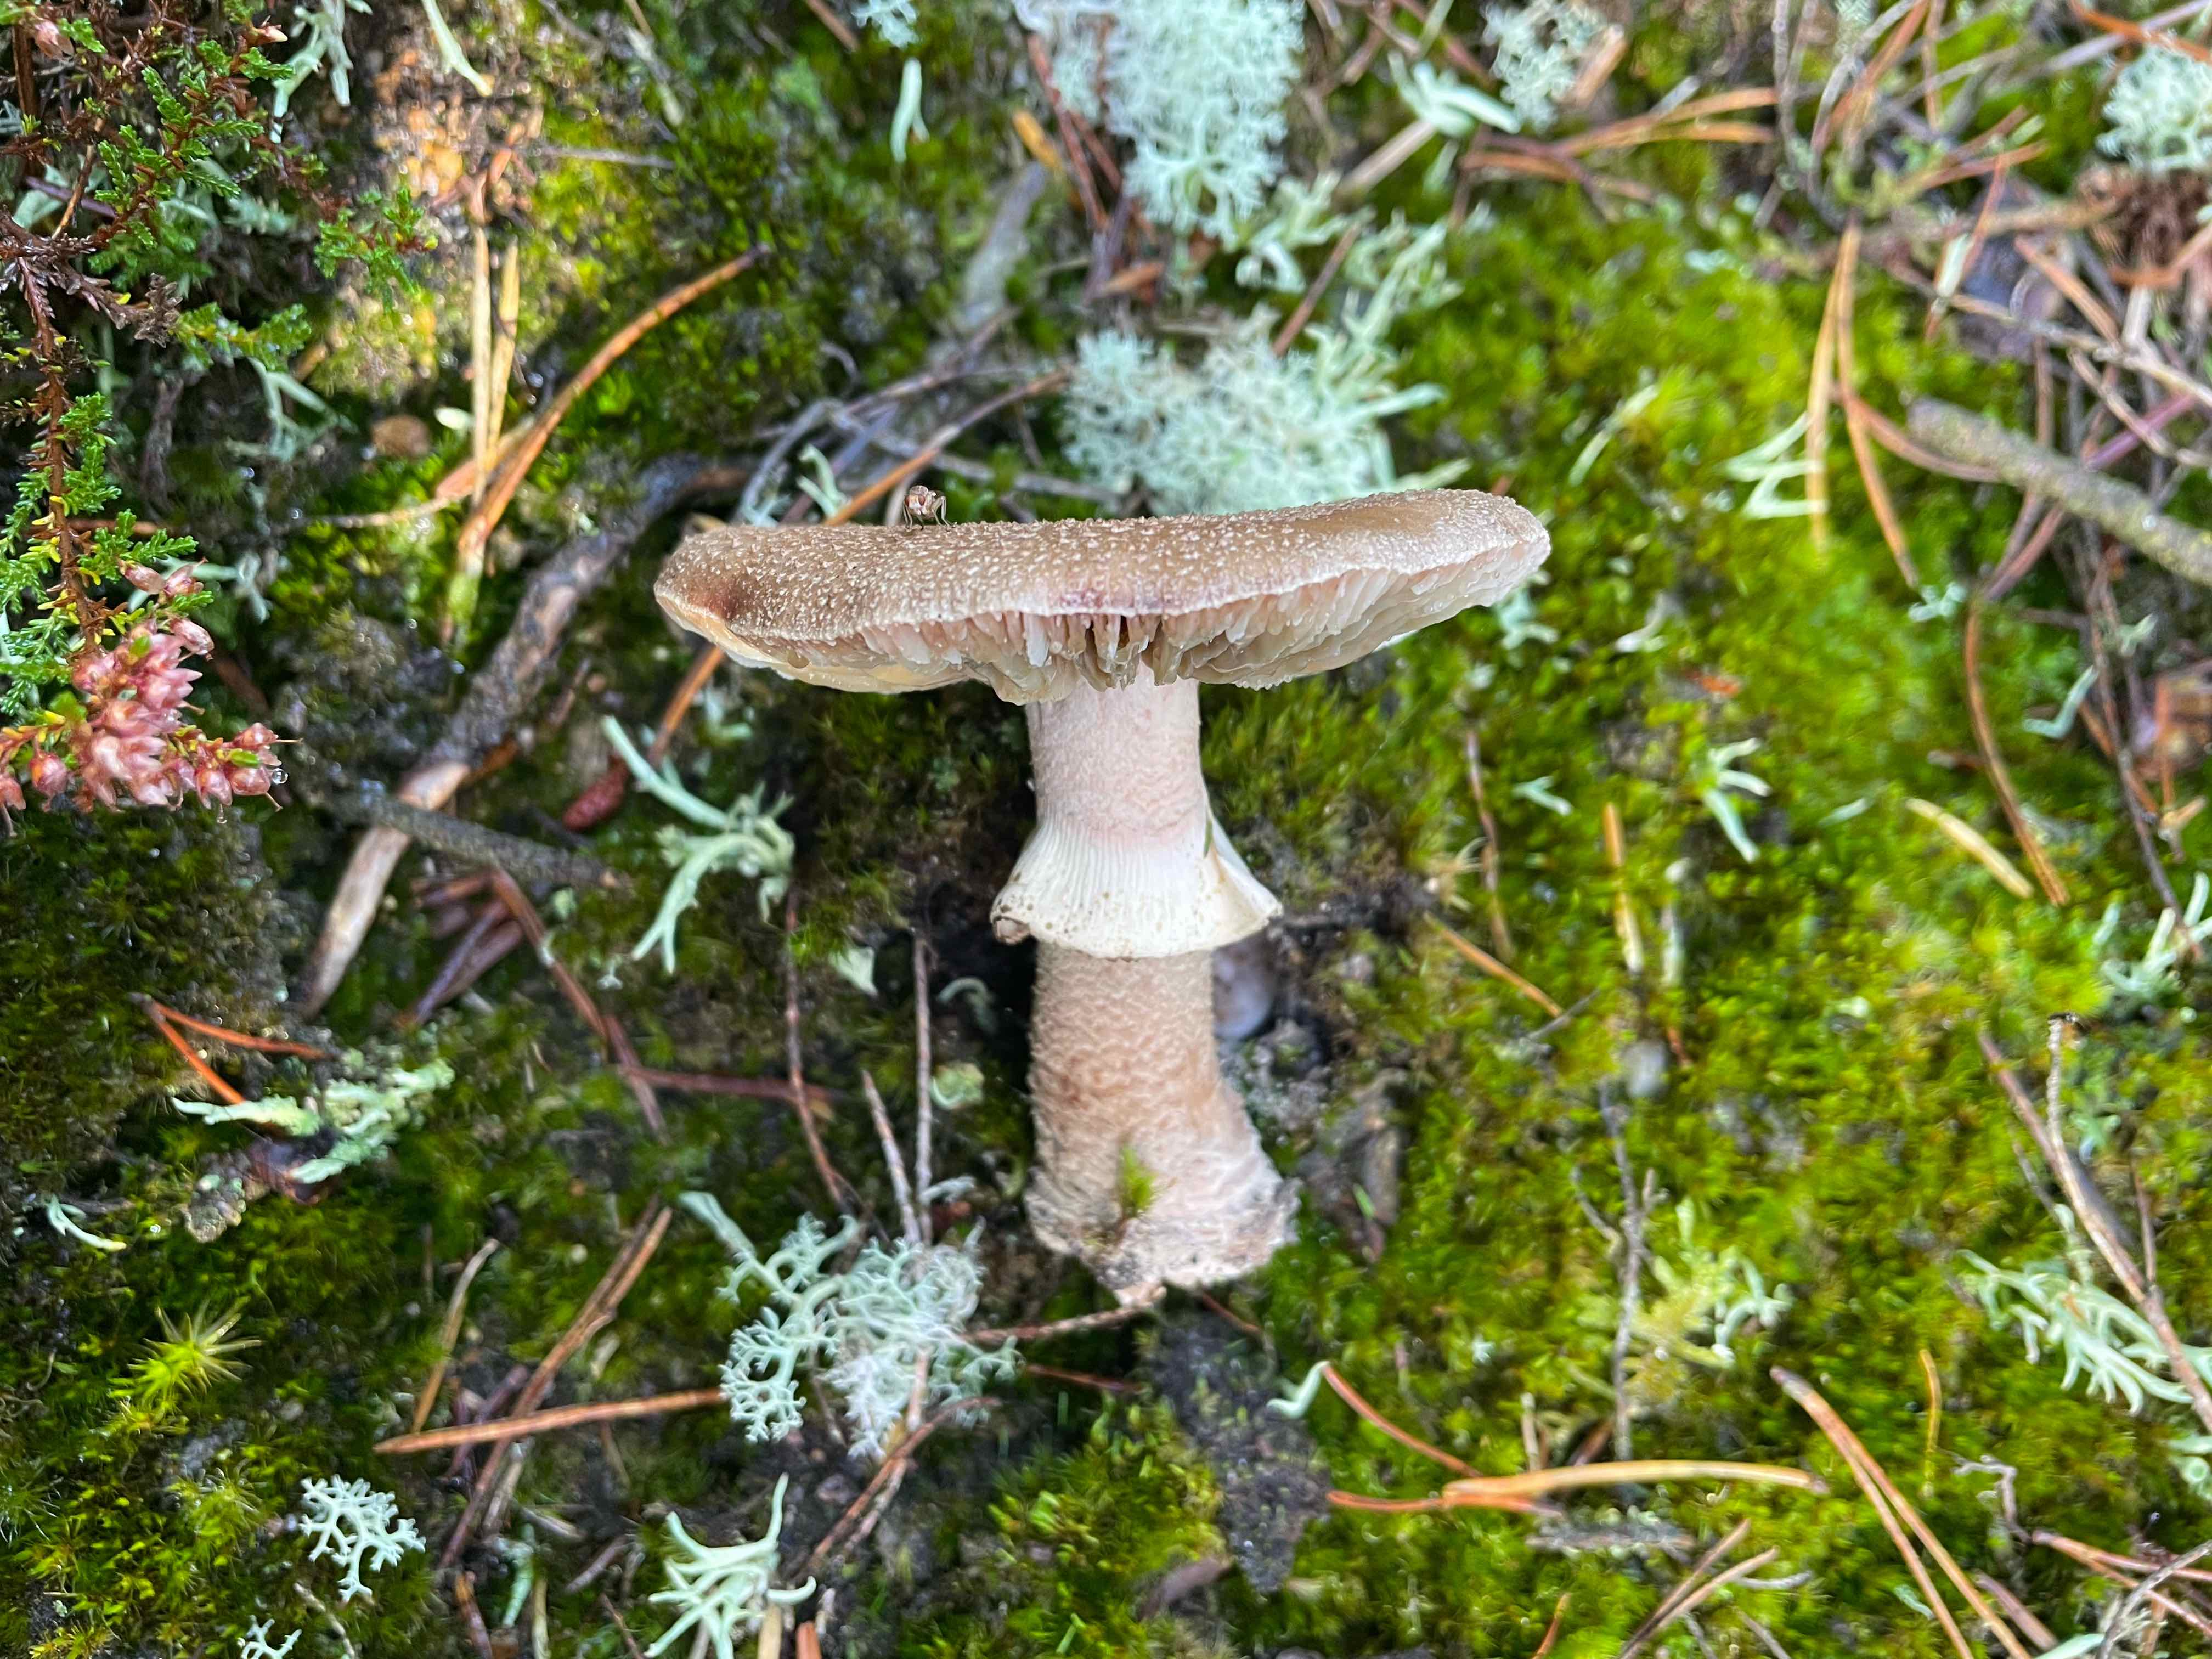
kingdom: Fungi
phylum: Basidiomycota
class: Agaricomycetes
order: Agaricales
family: Amanitaceae
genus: Amanita
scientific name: Amanita rubescens
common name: rødmende fluesvamp
